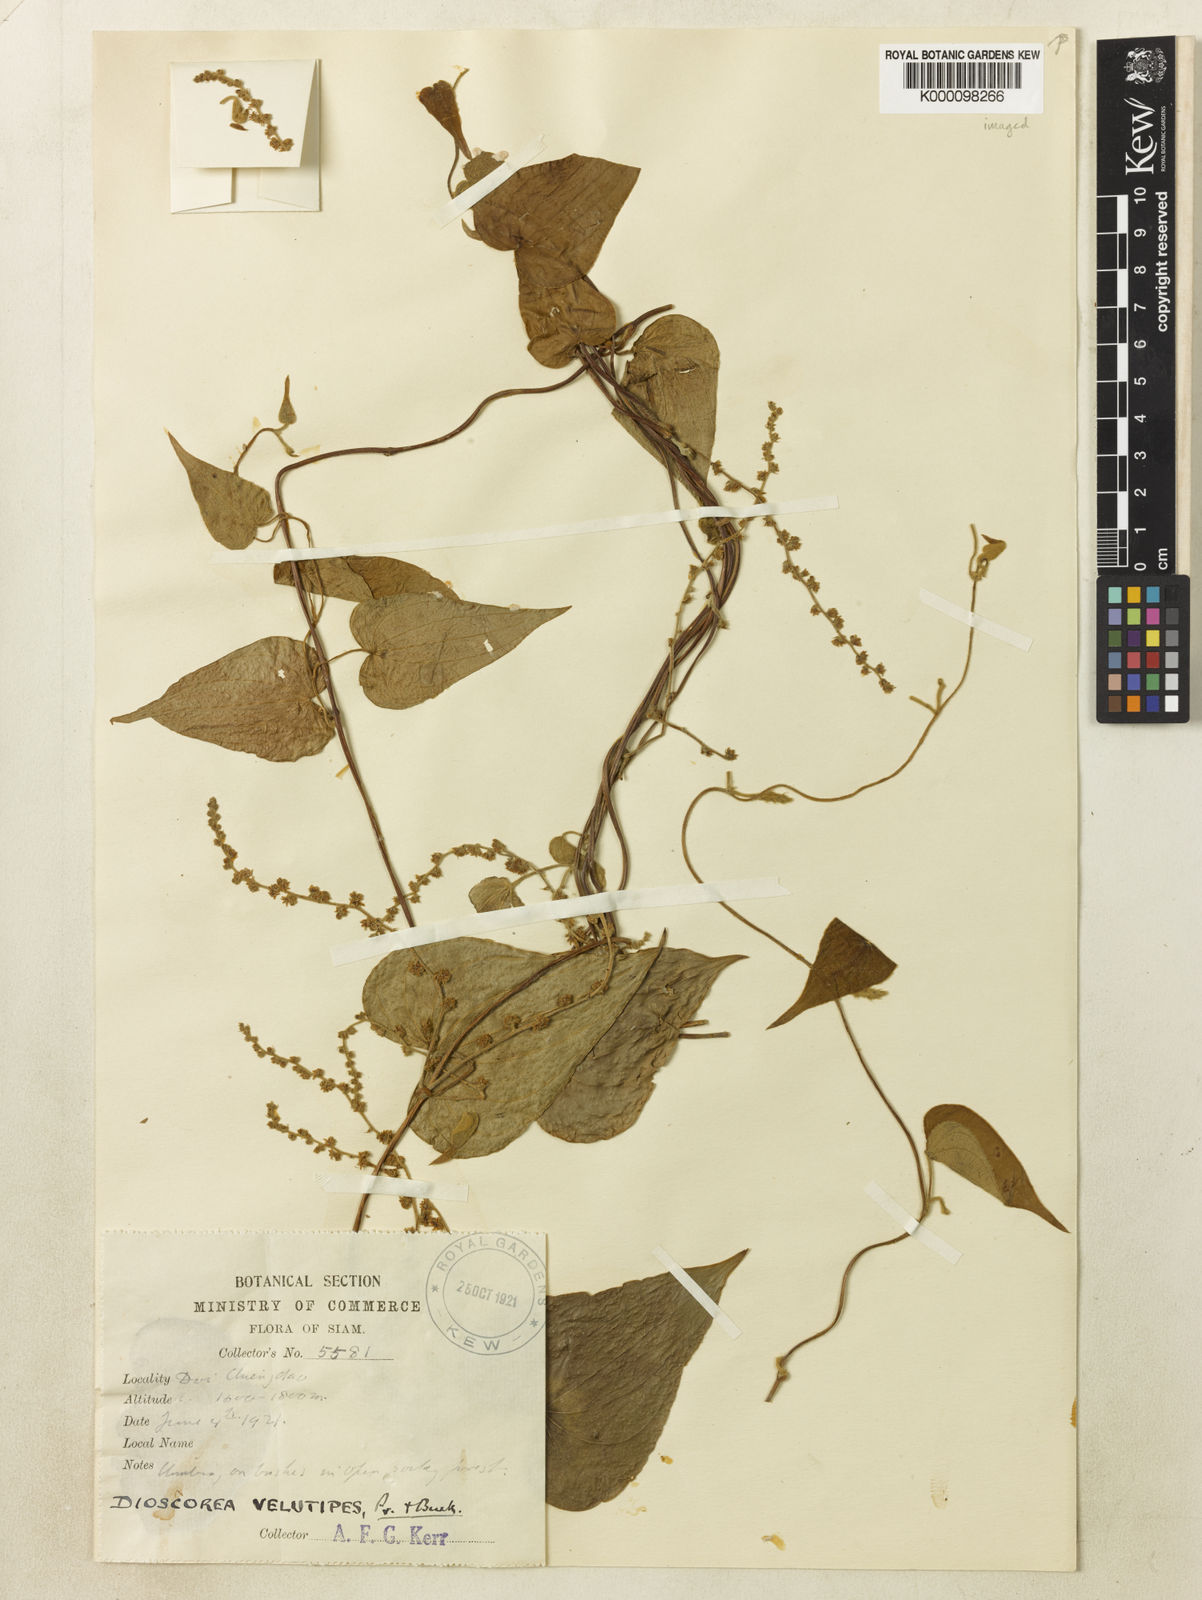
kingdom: Plantae
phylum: Tracheophyta
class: Liliopsida
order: Dioscoreales
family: Dioscoreaceae
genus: Dioscorea
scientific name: Dioscorea velutipes
